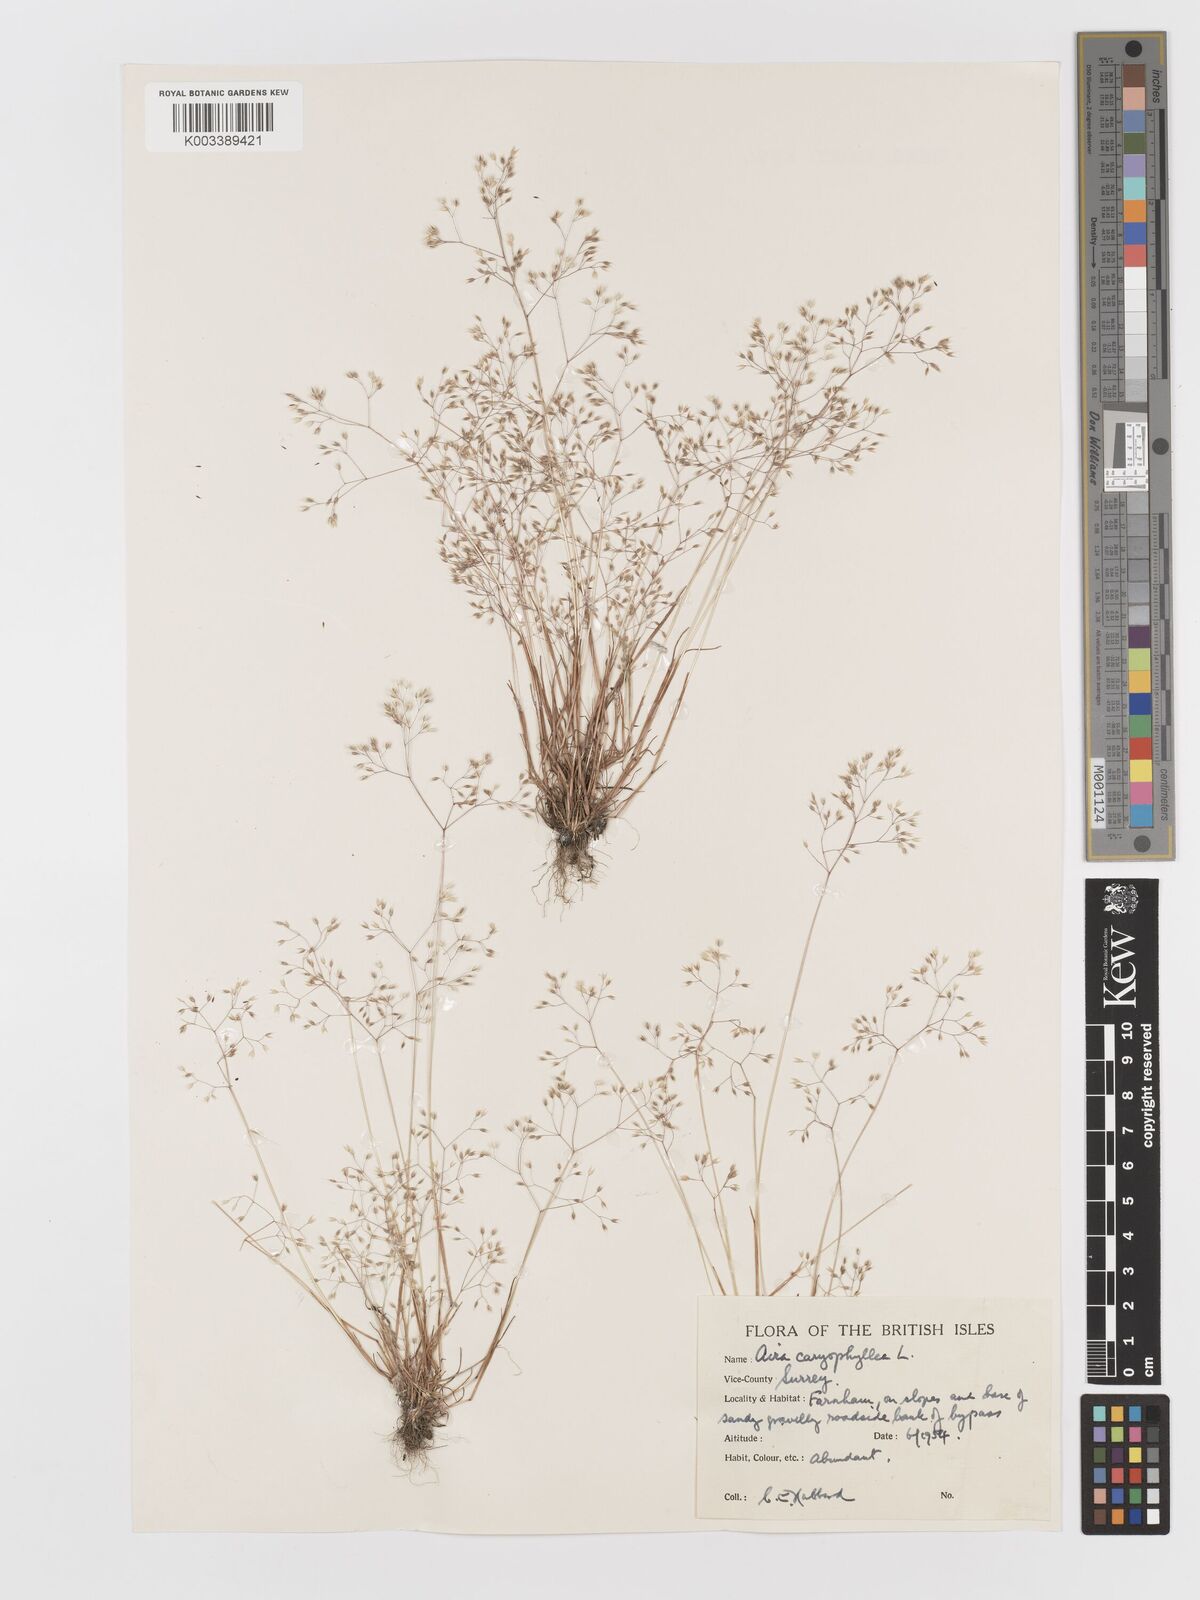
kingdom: Plantae
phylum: Tracheophyta
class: Liliopsida
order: Poales
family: Poaceae
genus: Aira
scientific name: Aira caryophyllea
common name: Silver hairgrass
